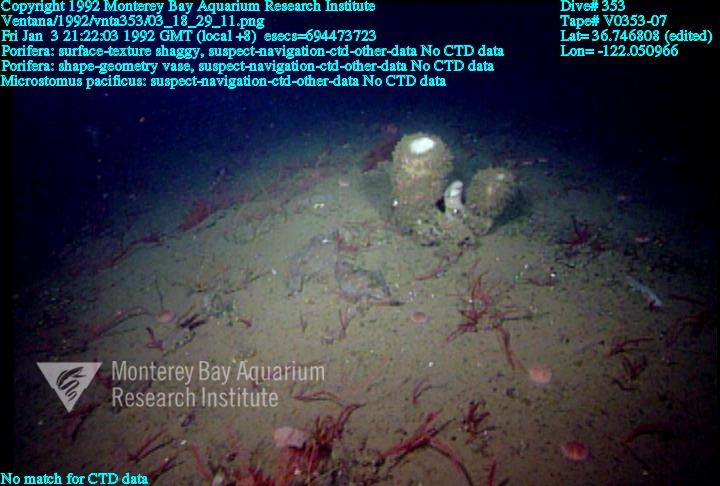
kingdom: Animalia
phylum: Porifera
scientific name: Porifera
